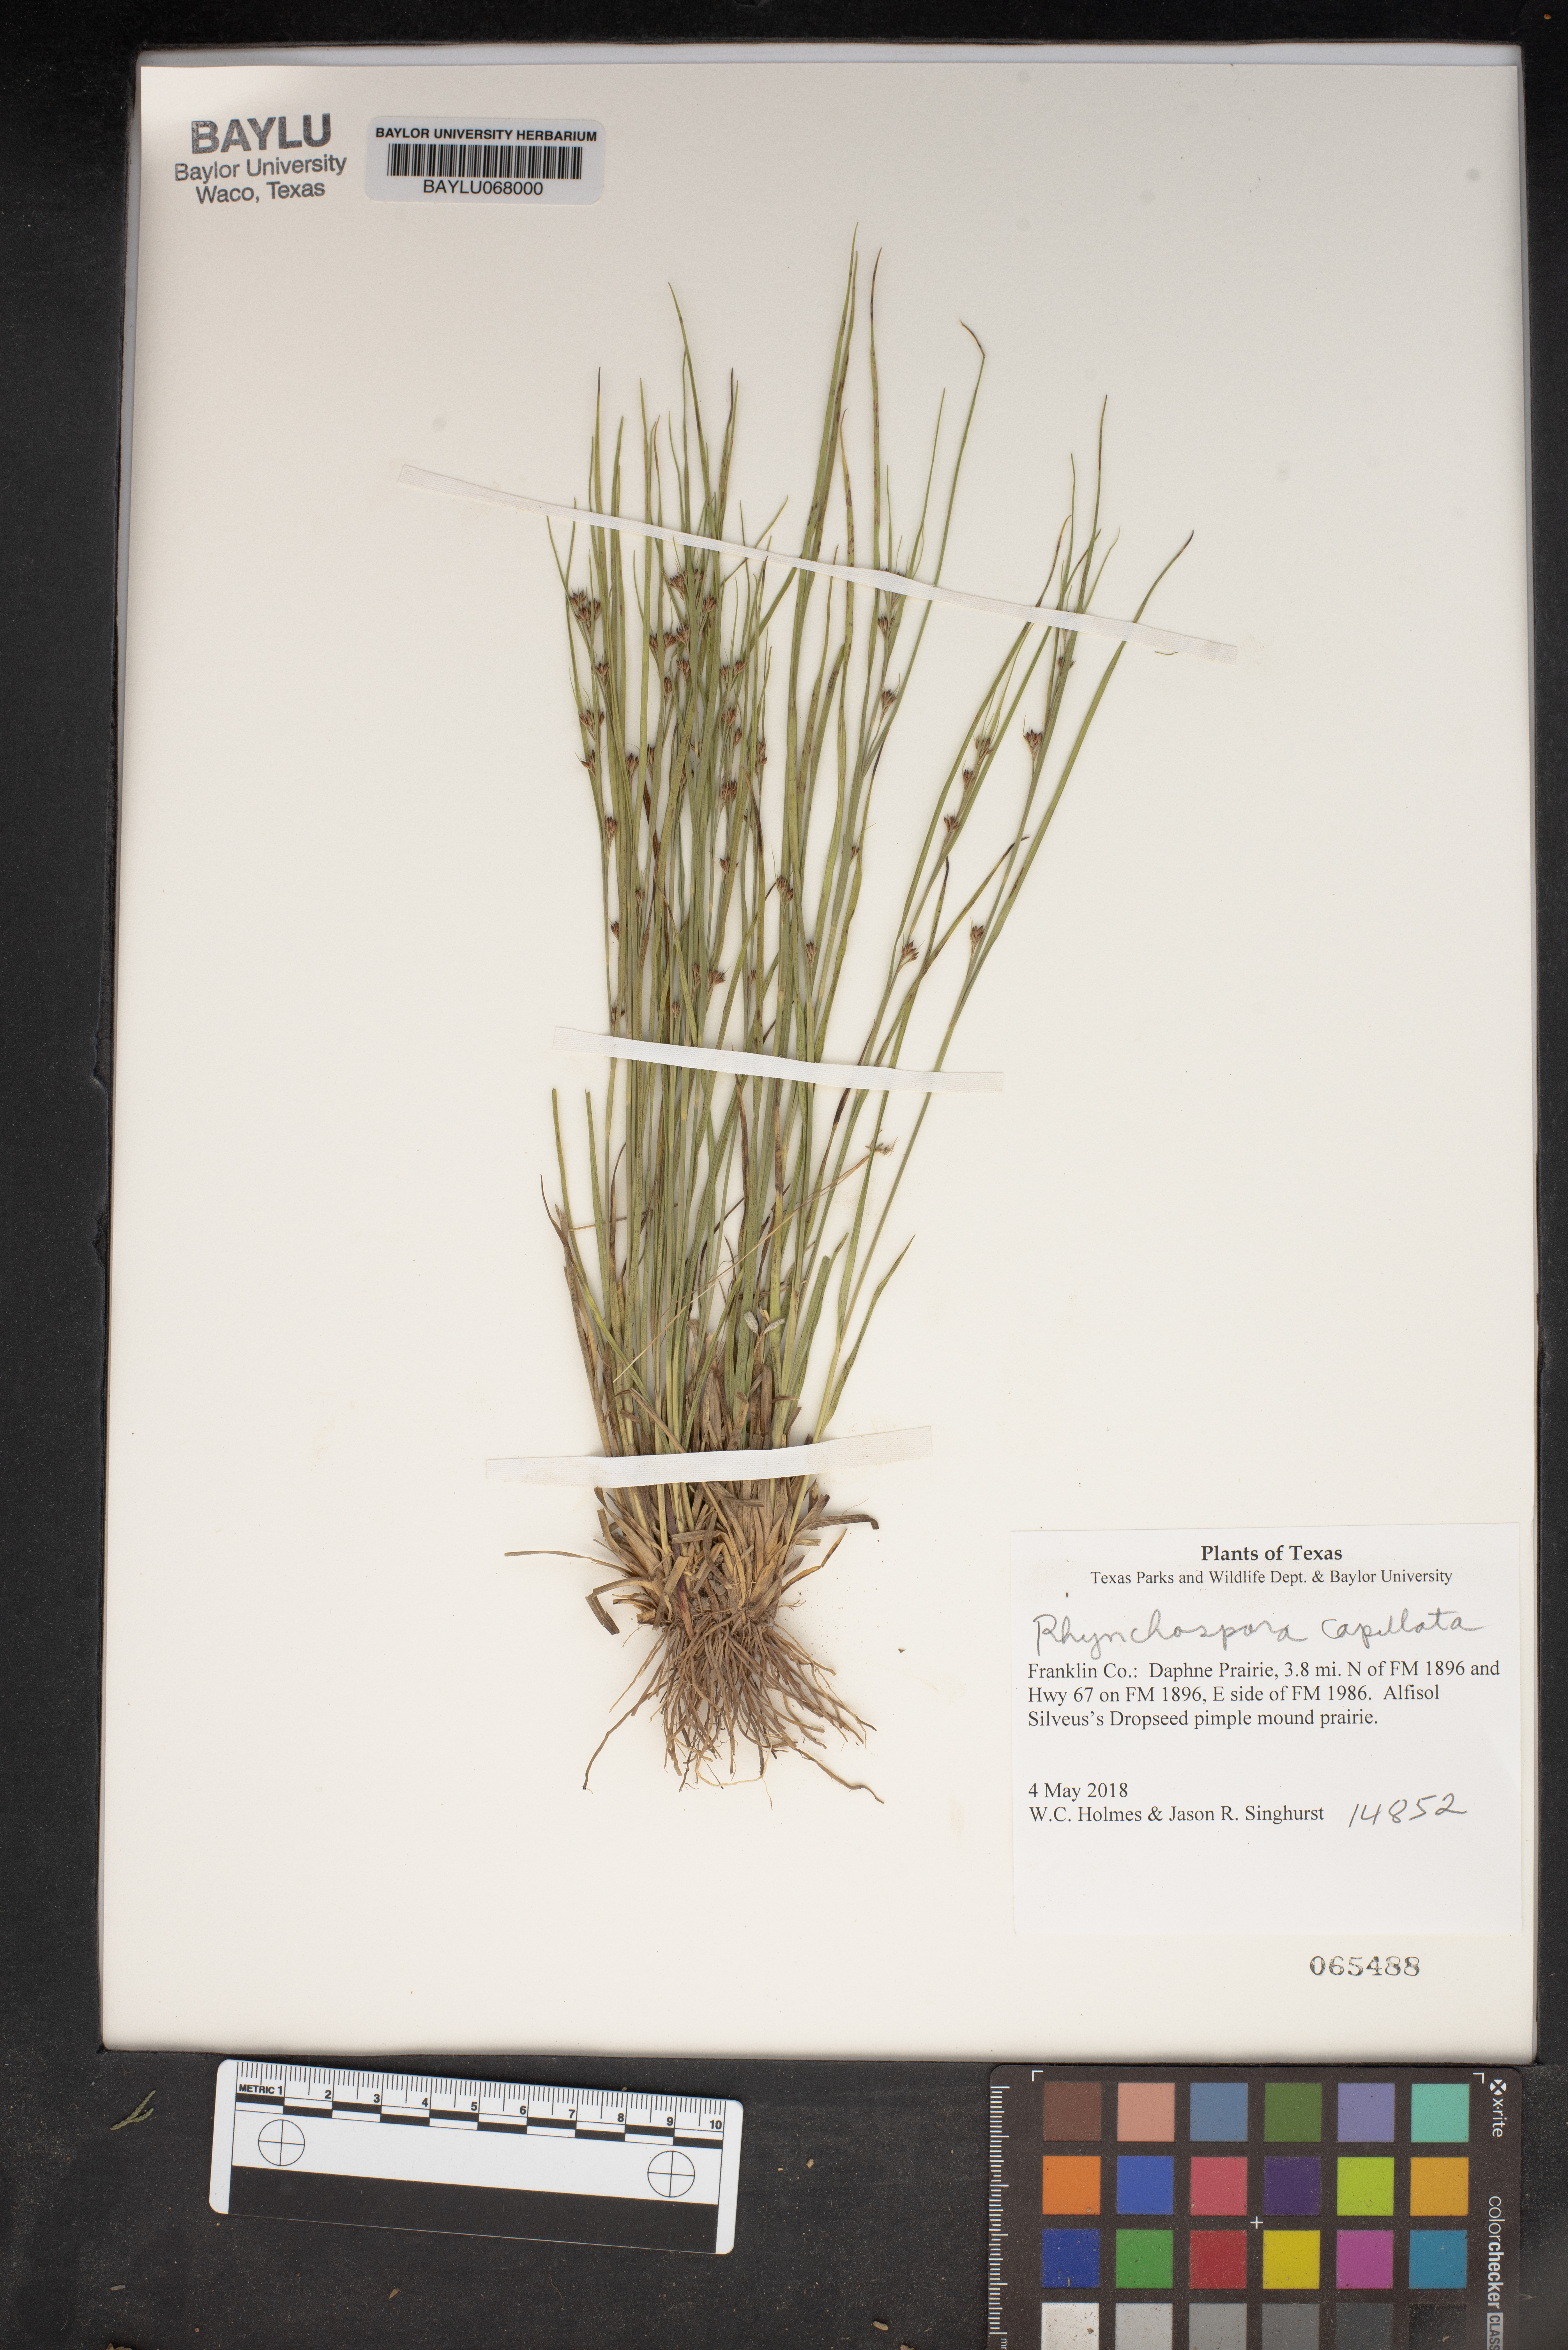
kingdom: Plantae
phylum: Tracheophyta
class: Liliopsida
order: Poales
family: Cyperaceae
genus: Rhynchospora
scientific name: Rhynchospora capitata
